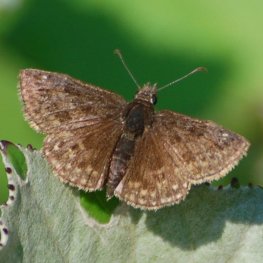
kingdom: Animalia
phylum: Arthropoda
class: Insecta
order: Lepidoptera
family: Hesperiidae
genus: Erynnis
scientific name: Erynnis icelus
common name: Dreamy Duskywing
